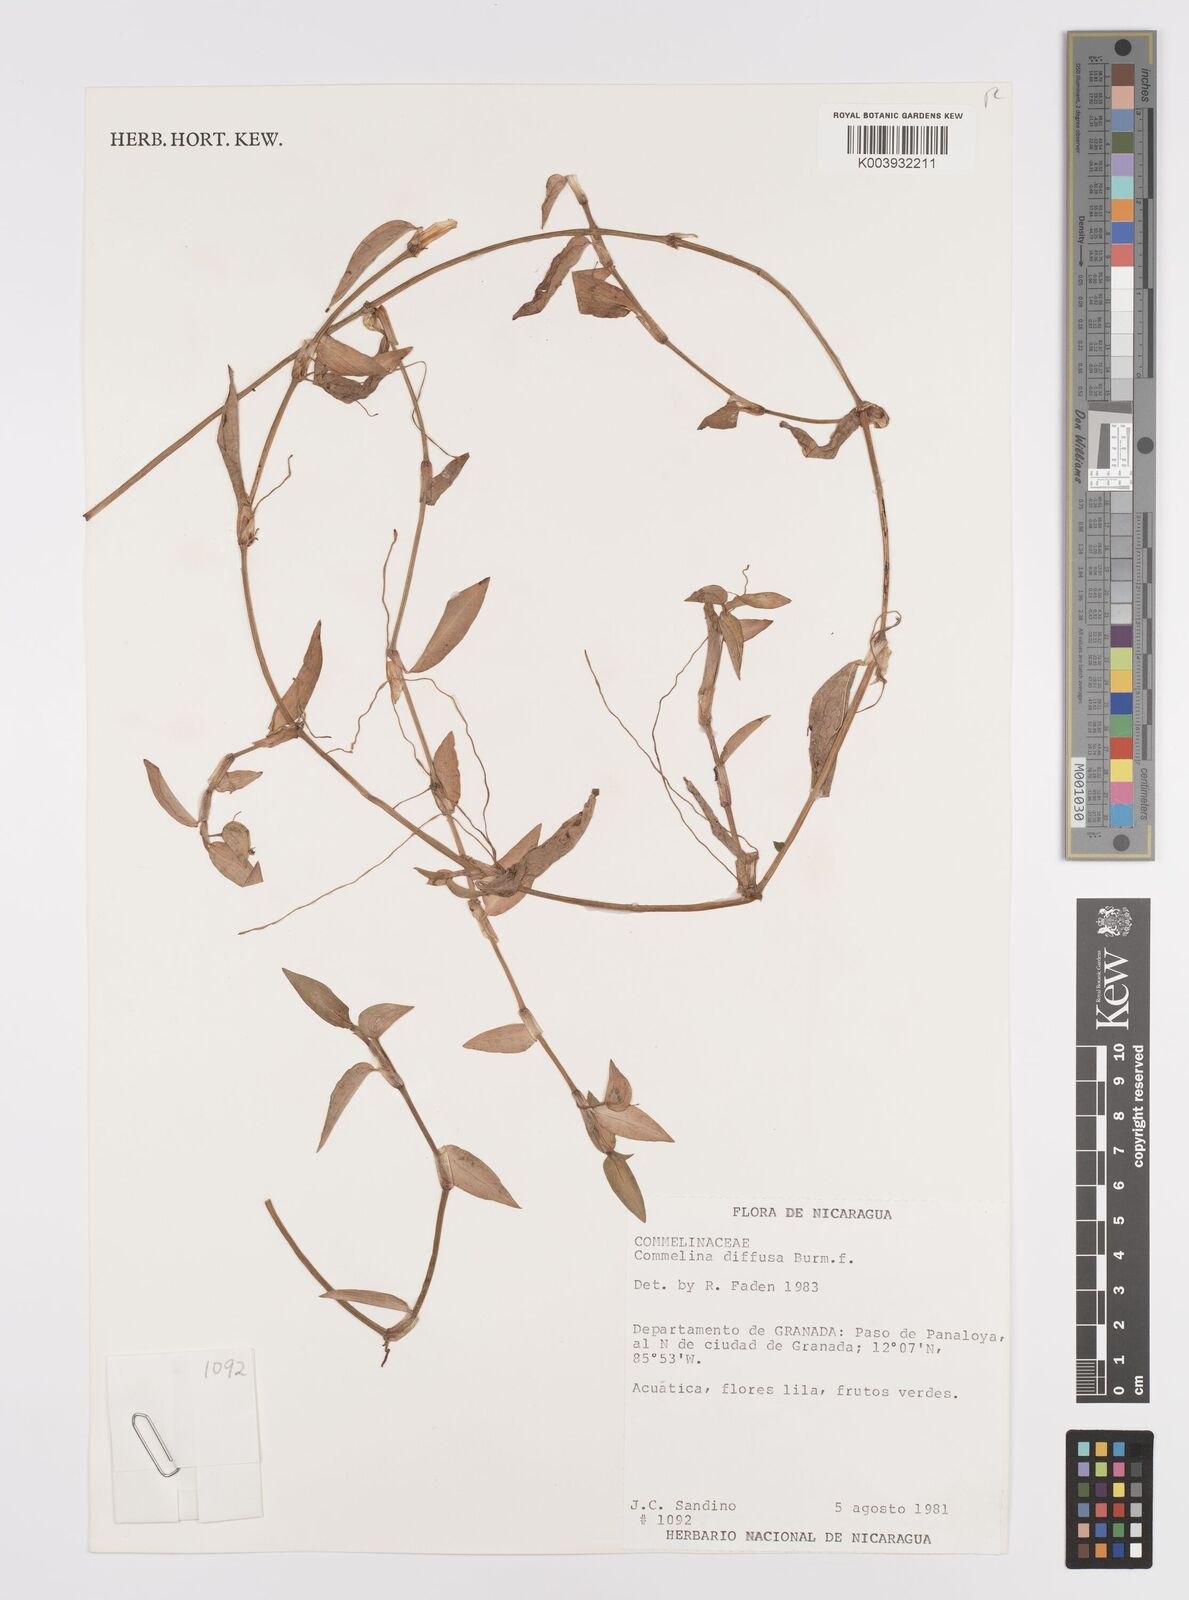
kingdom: Plantae
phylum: Tracheophyta
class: Liliopsida
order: Commelinales
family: Commelinaceae
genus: Commelina
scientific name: Commelina diffusa
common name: Climbing dayflower
